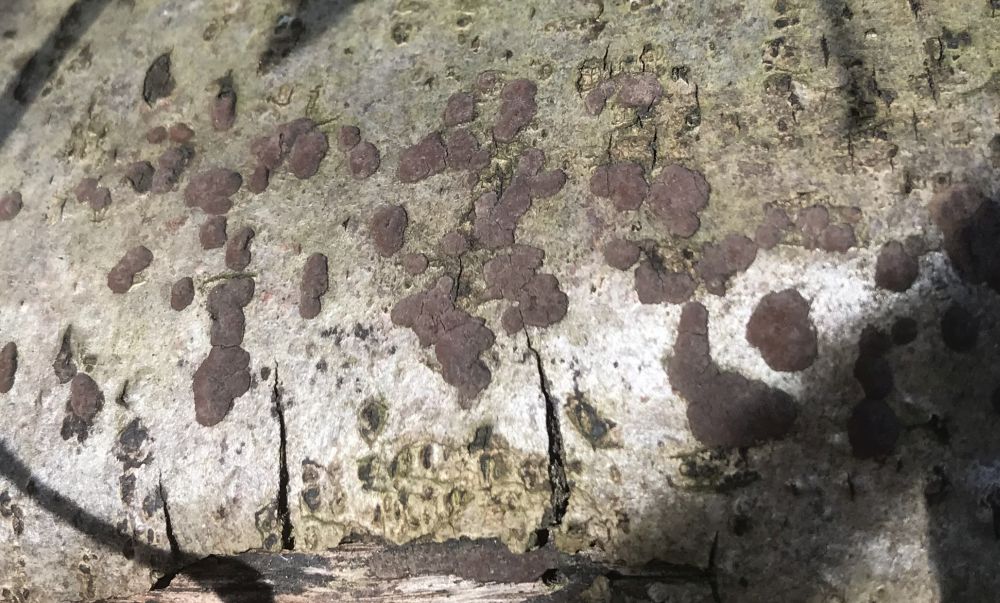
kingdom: Fungi
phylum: Ascomycota
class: Sordariomycetes
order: Xylariales
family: Hypoxylaceae
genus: Jackrogersella
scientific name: Jackrogersella multiformis
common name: foranderlig kulbær
